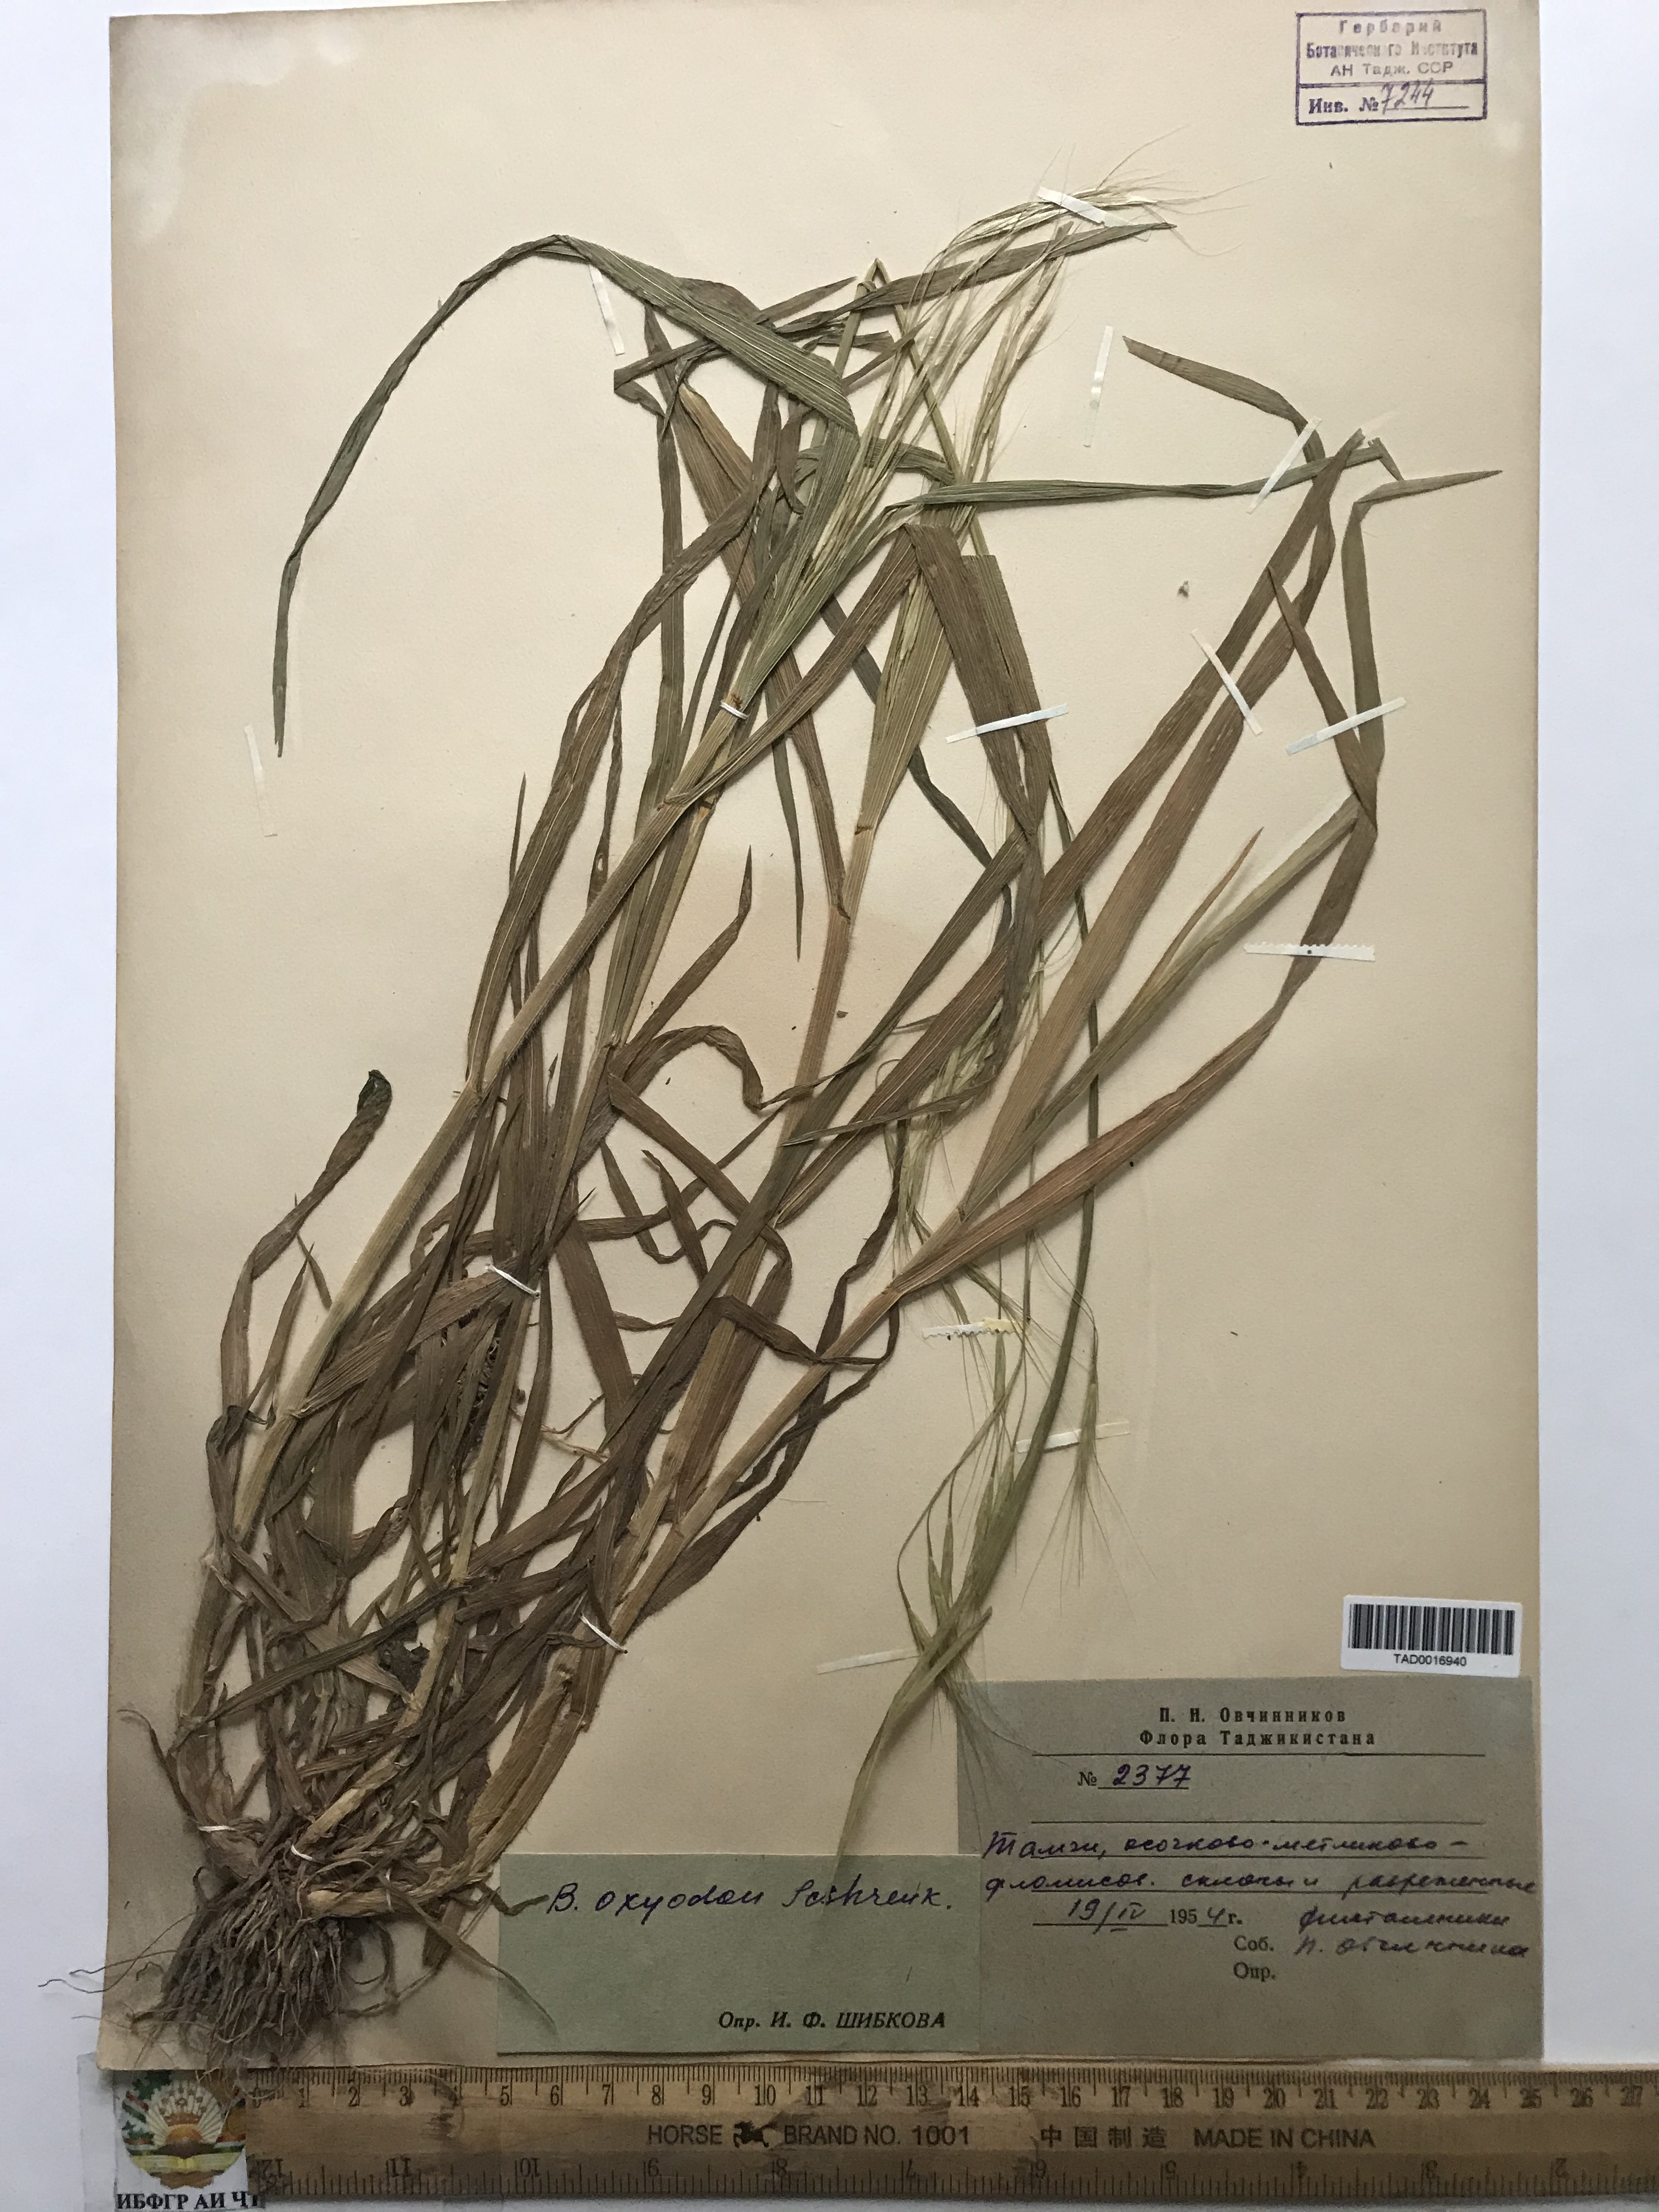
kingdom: Plantae
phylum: Tracheophyta
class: Liliopsida
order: Poales
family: Poaceae
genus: Bromus
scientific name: Bromus oxyodon
